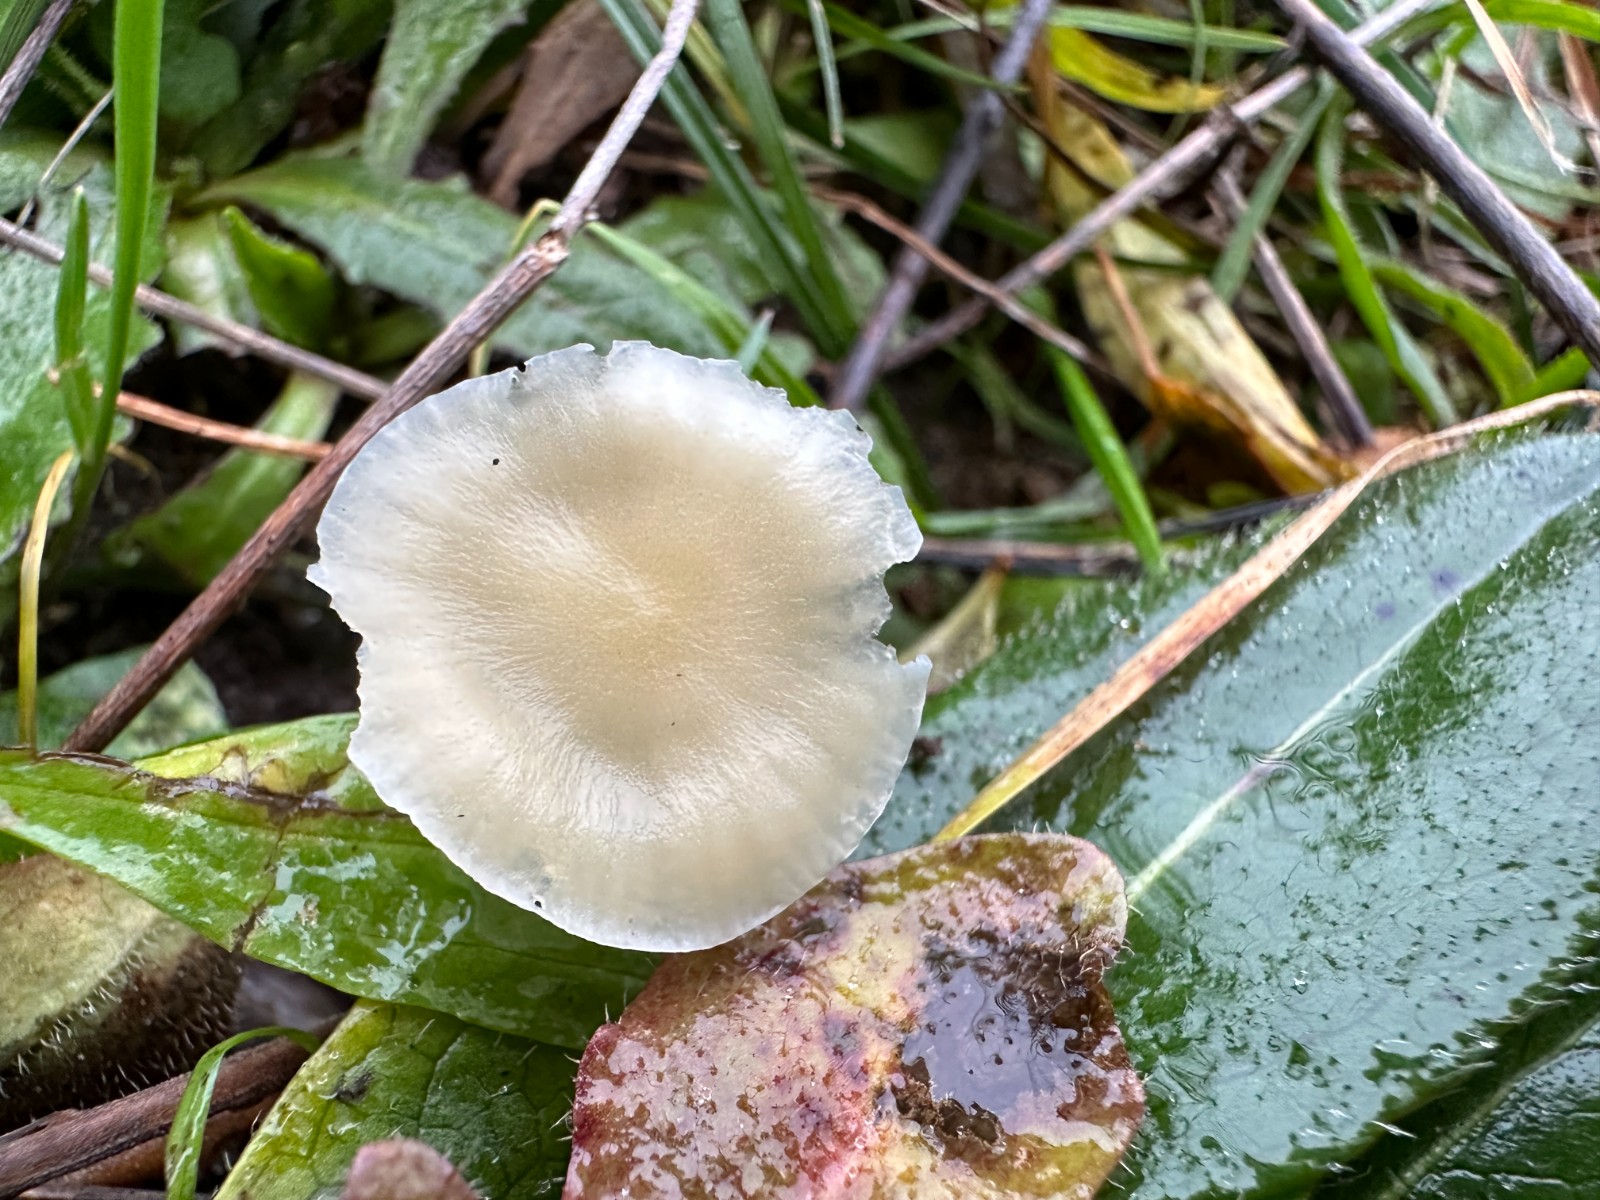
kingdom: Fungi
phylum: Basidiomycota
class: Agaricomycetes
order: Agaricales
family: Hygrophoraceae
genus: Cuphophyllus
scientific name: Cuphophyllus russocoriaceus
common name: ruslæder-vokshat
